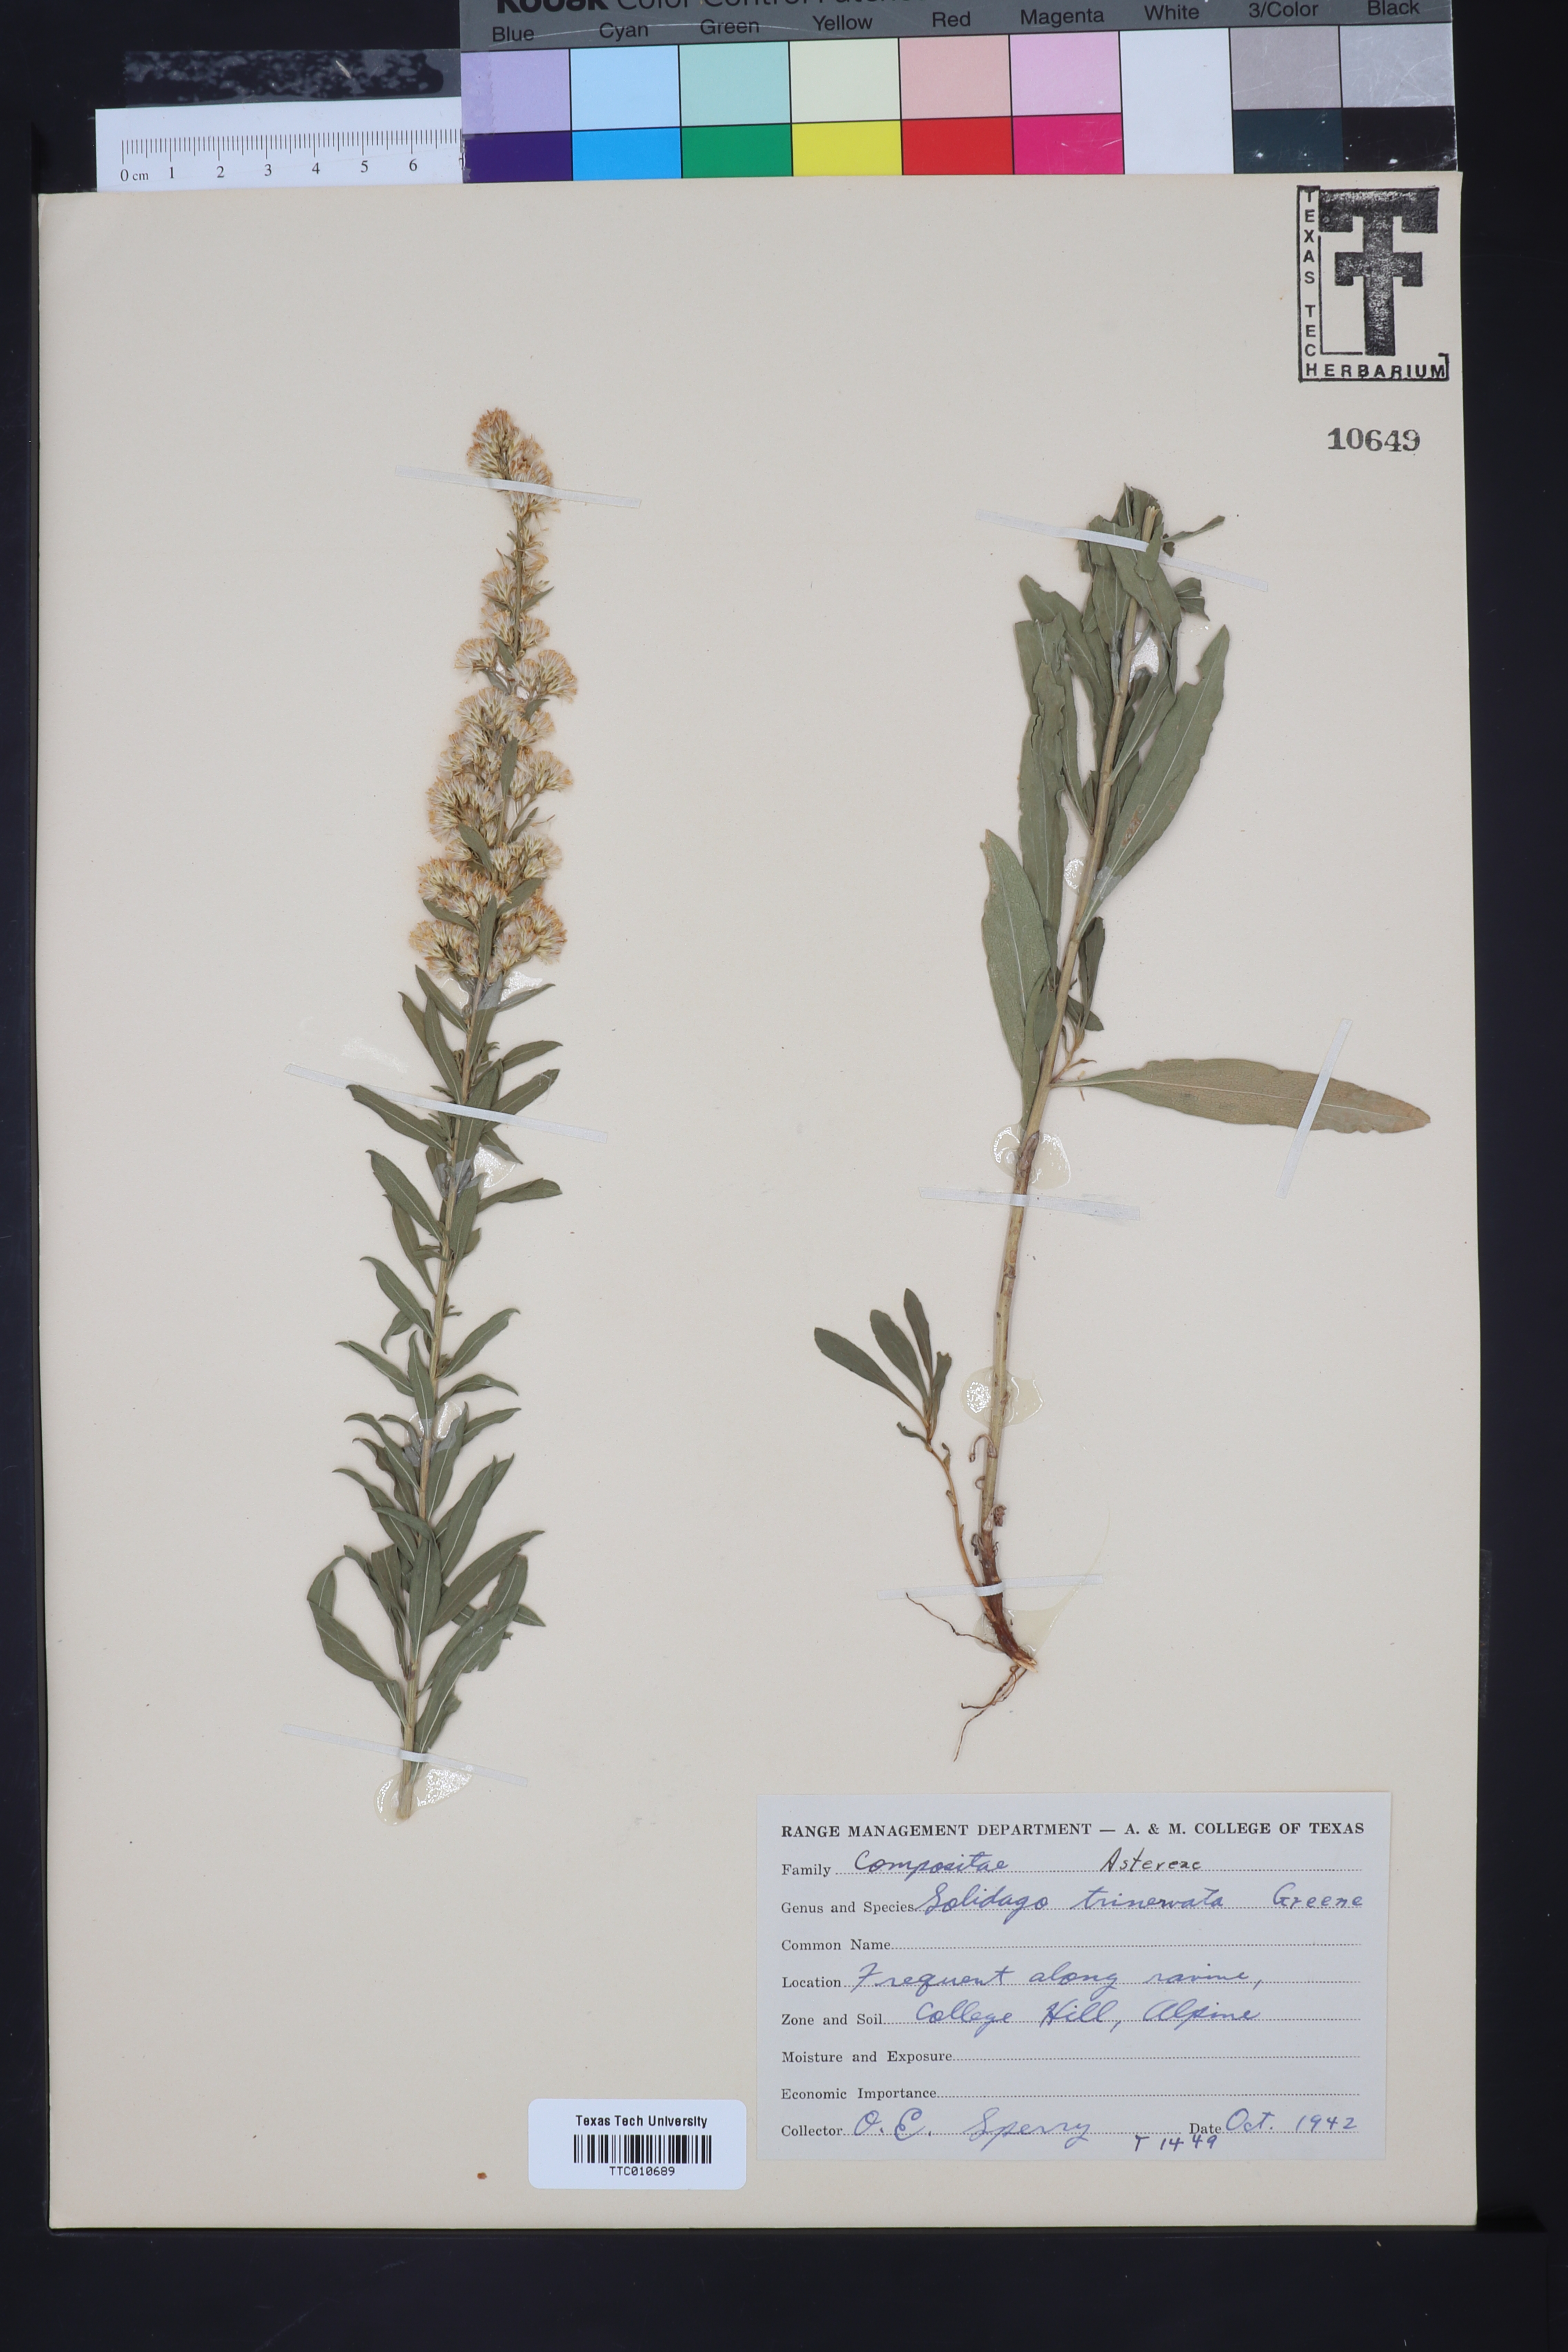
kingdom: Plantae
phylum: Tracheophyta
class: Magnoliopsida
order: Asterales
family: Asteraceae
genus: Solidago
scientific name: Solidago garrettii
